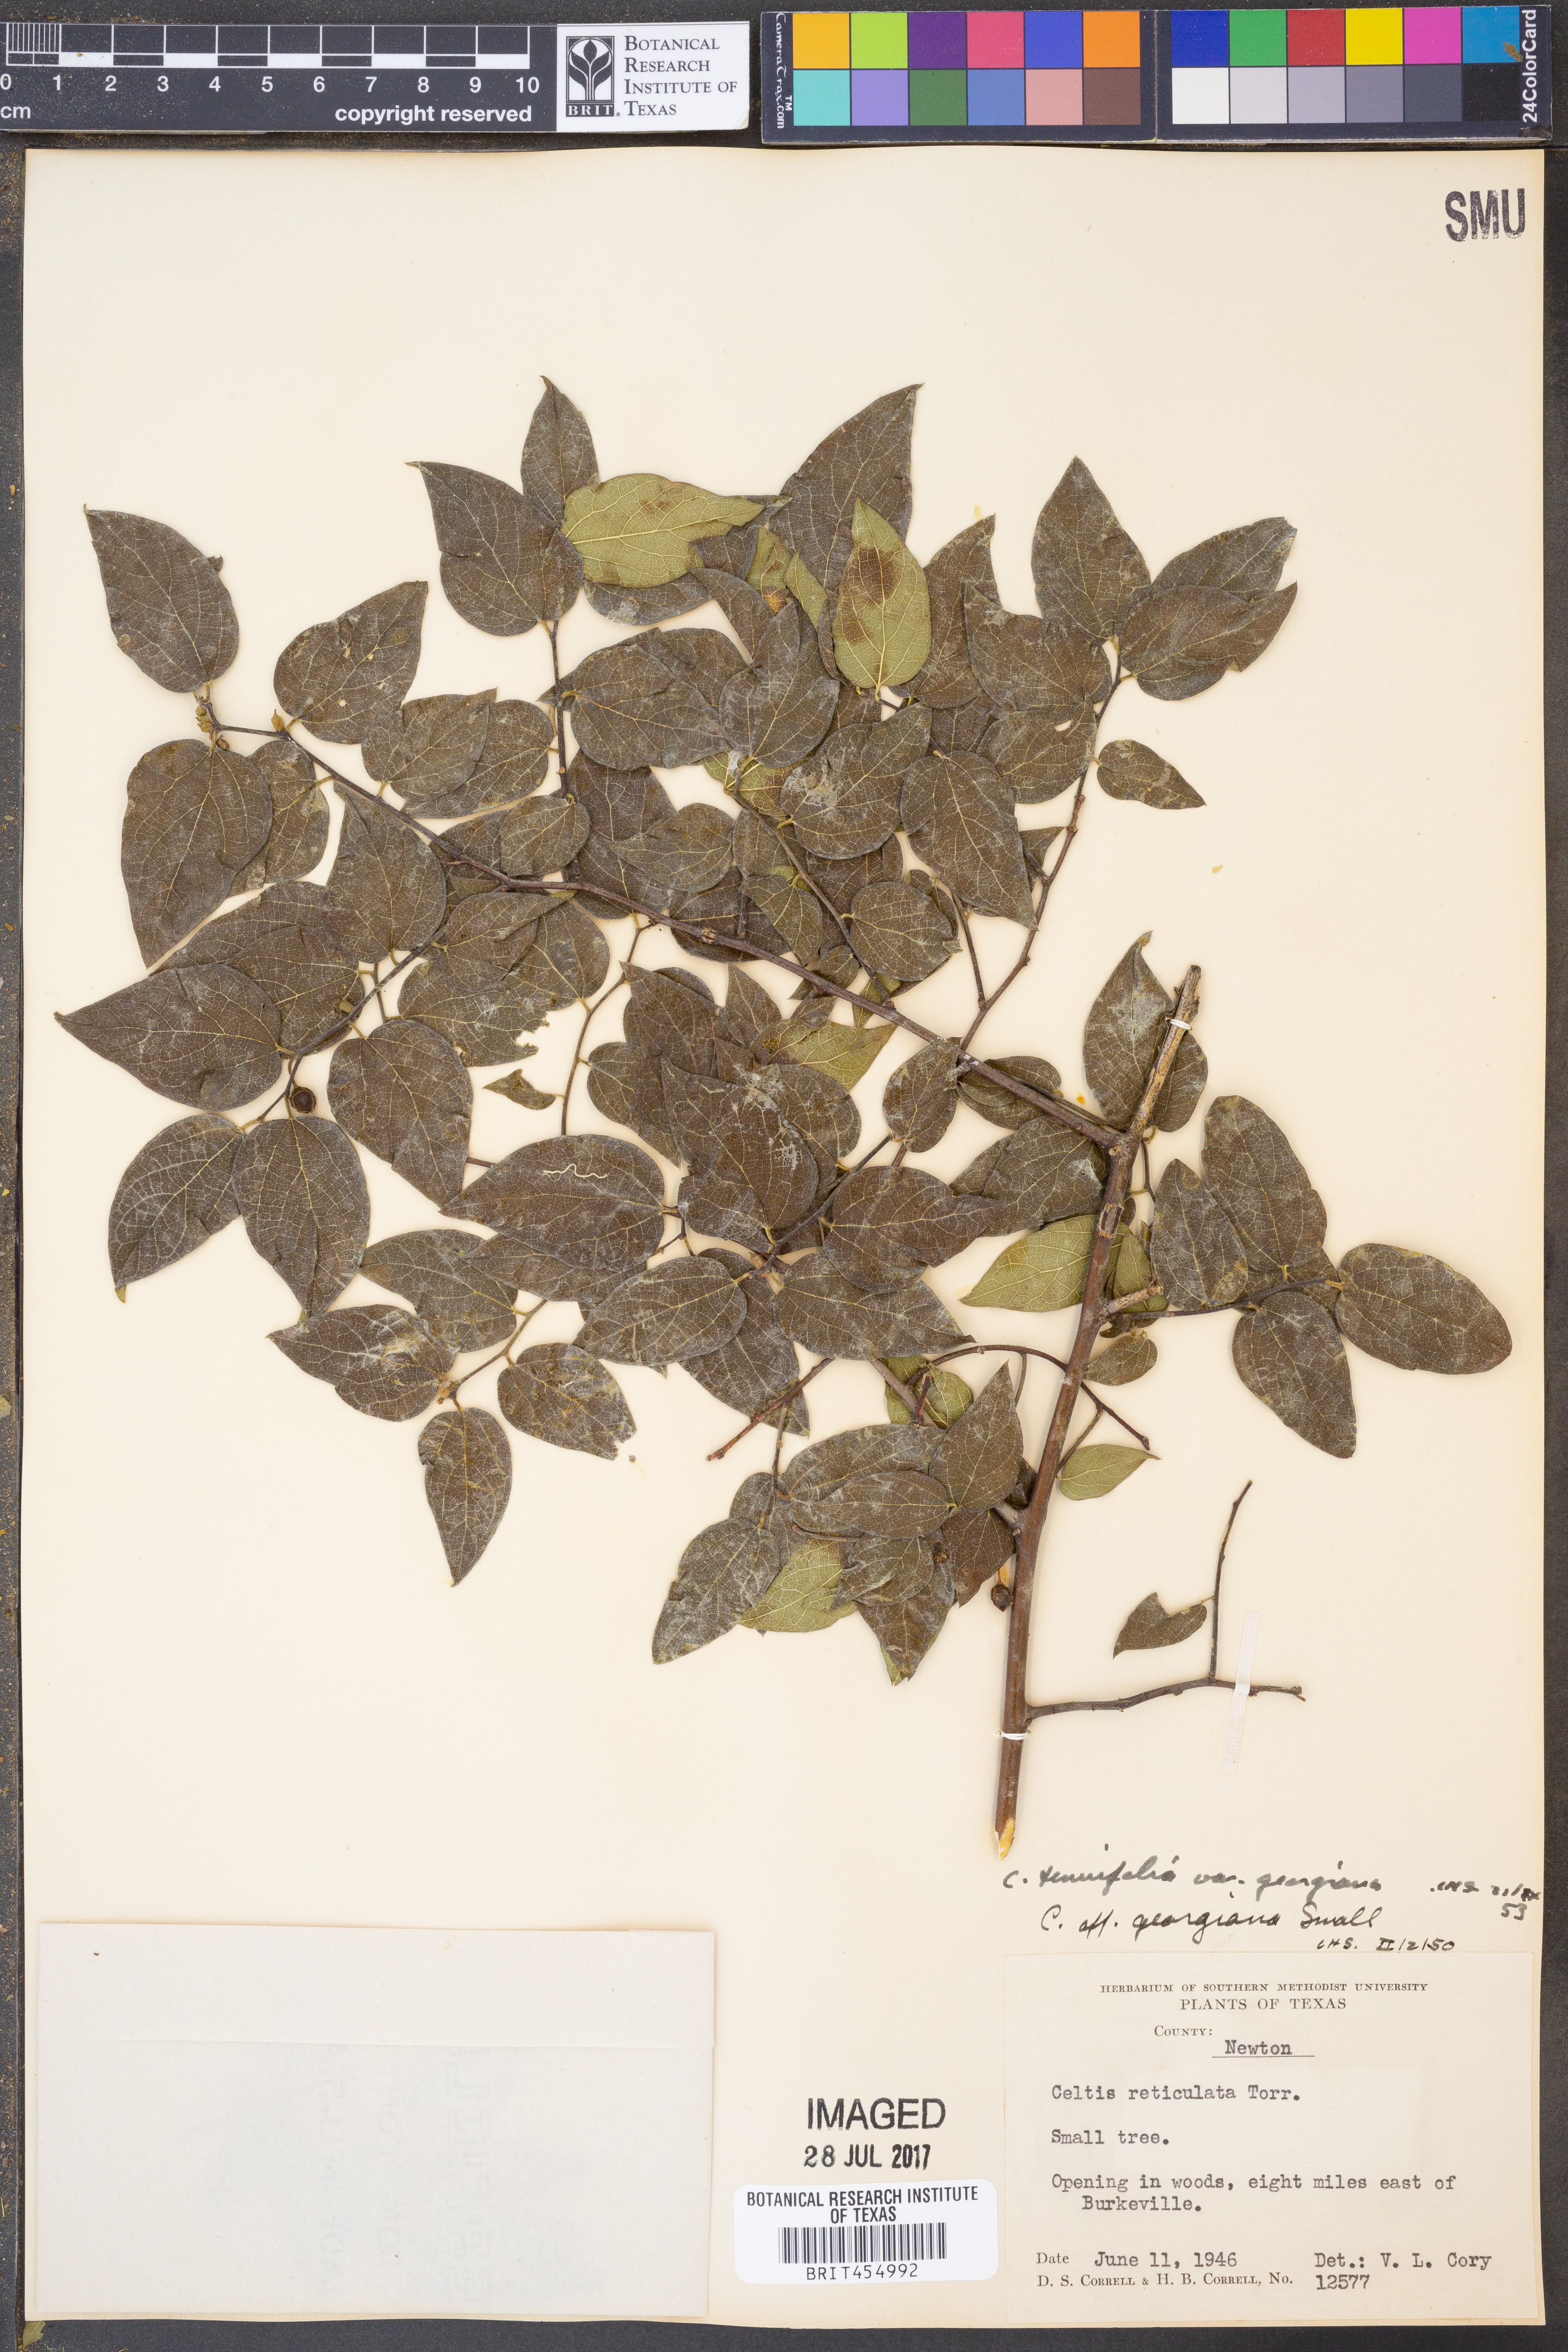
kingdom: Plantae
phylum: Tracheophyta
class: Magnoliopsida
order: Rosales
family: Cannabaceae
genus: Celtis
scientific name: Celtis tenuifolia
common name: Georgia hackberry
